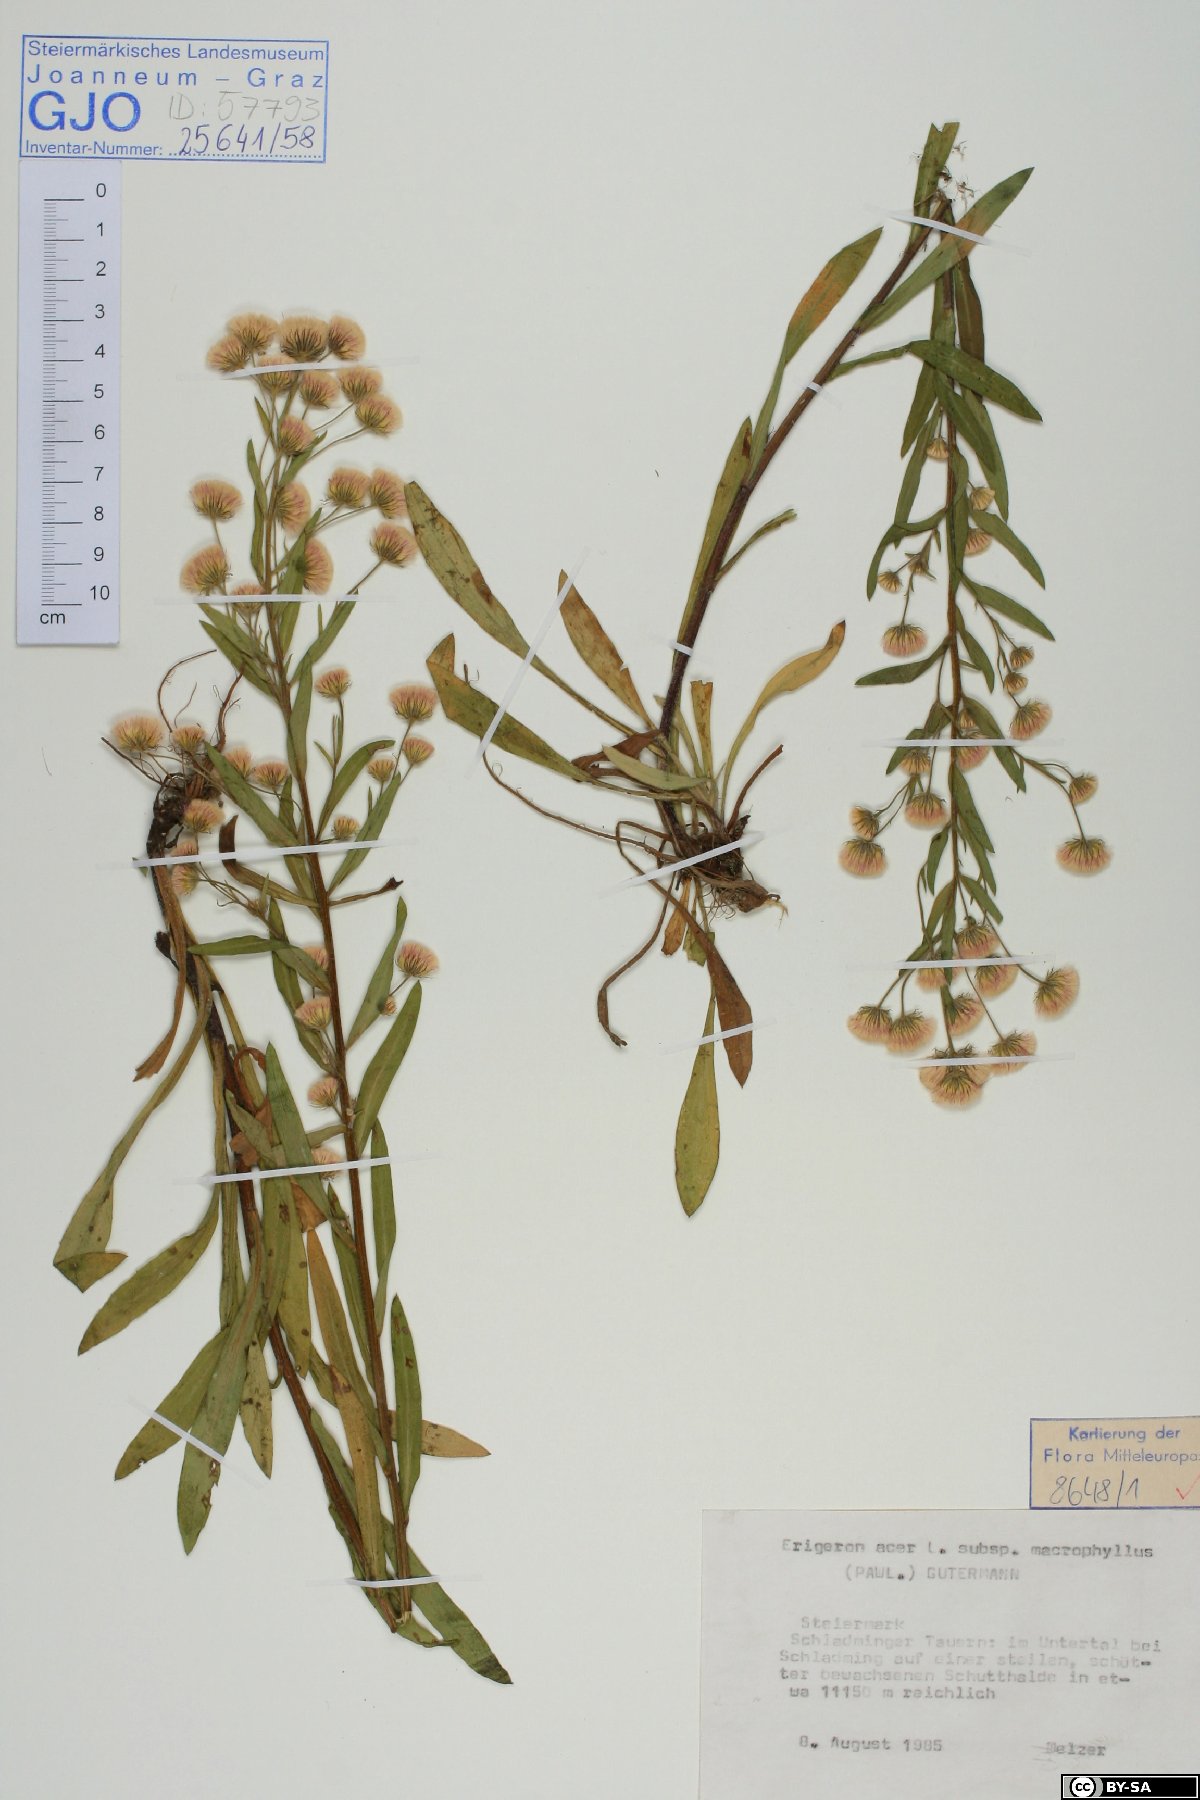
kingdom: Plantae
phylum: Tracheophyta
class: Magnoliopsida
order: Asterales
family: Asteraceae
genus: Erigeron
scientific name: Erigeron acris
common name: Blue fleabane
